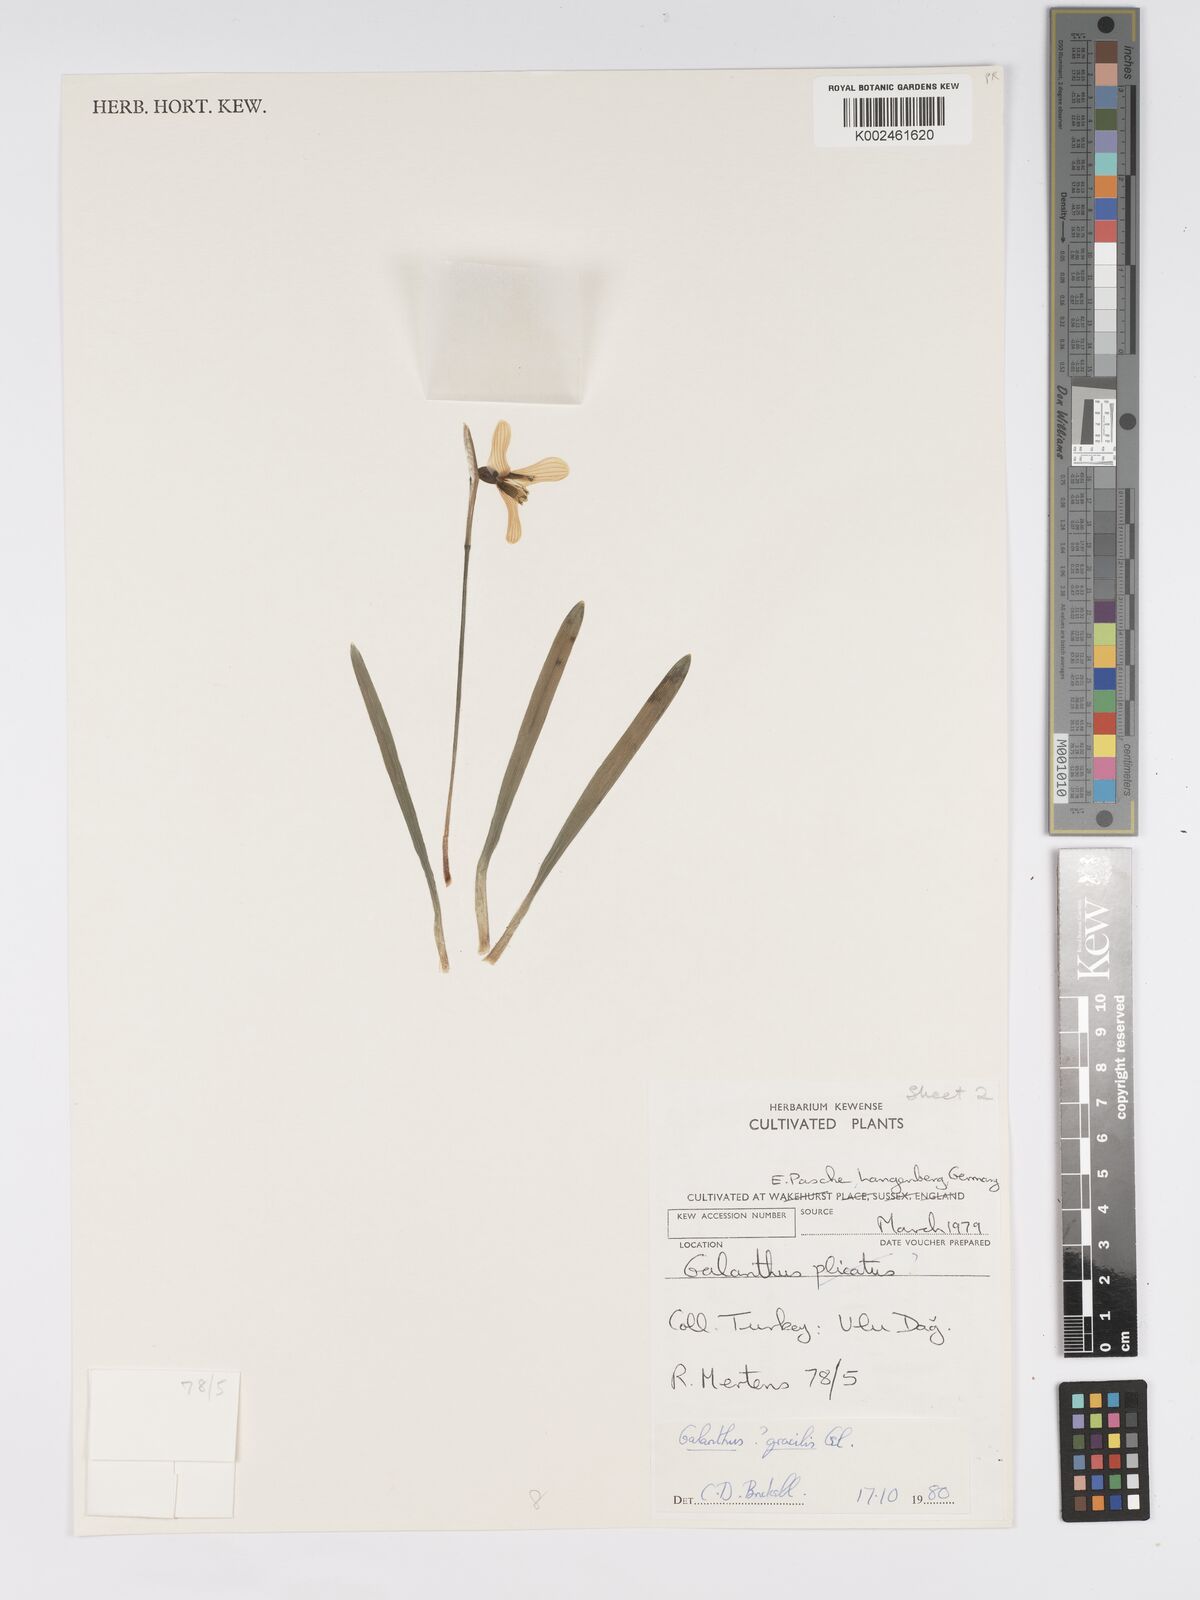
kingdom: Plantae
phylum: Tracheophyta
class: Liliopsida
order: Asparagales
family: Amaryllidaceae
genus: Galanthus
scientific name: Galanthus gracilis
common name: Snowdrop
